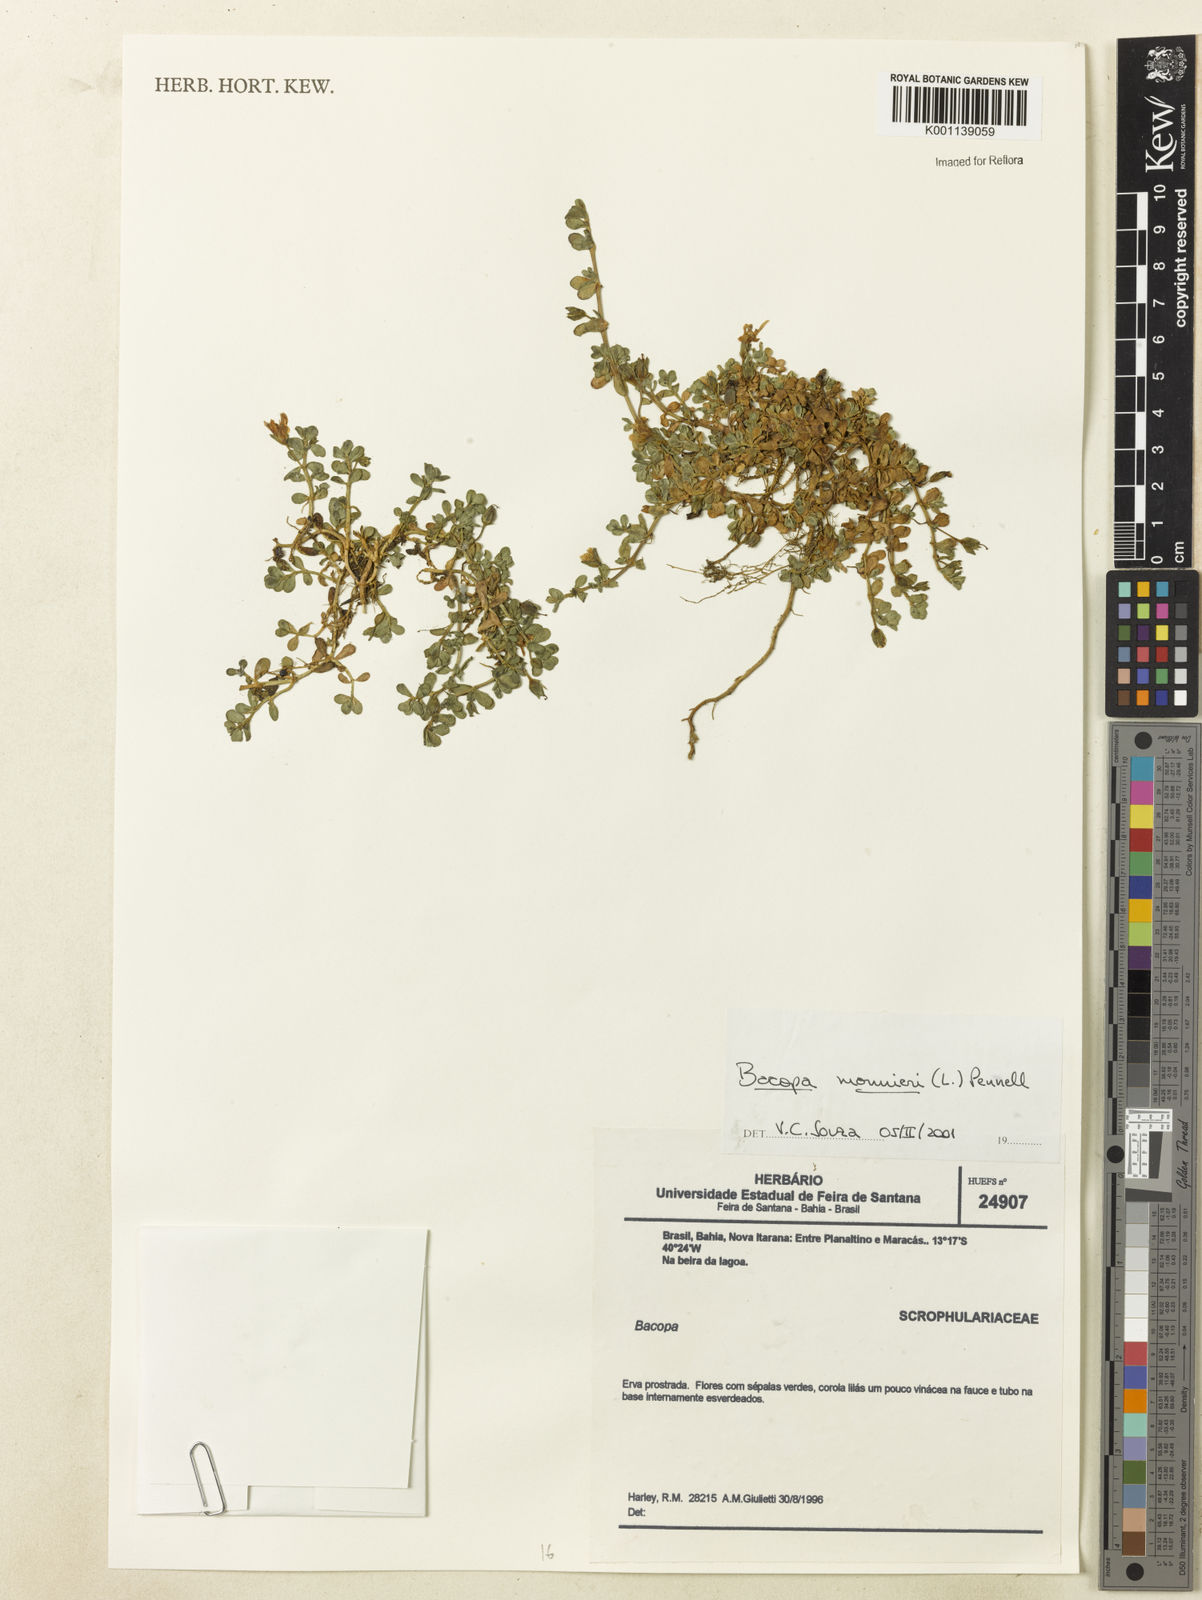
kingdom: Plantae
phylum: Tracheophyta
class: Magnoliopsida
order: Lamiales
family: Plantaginaceae
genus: Bacopa
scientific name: Bacopa
